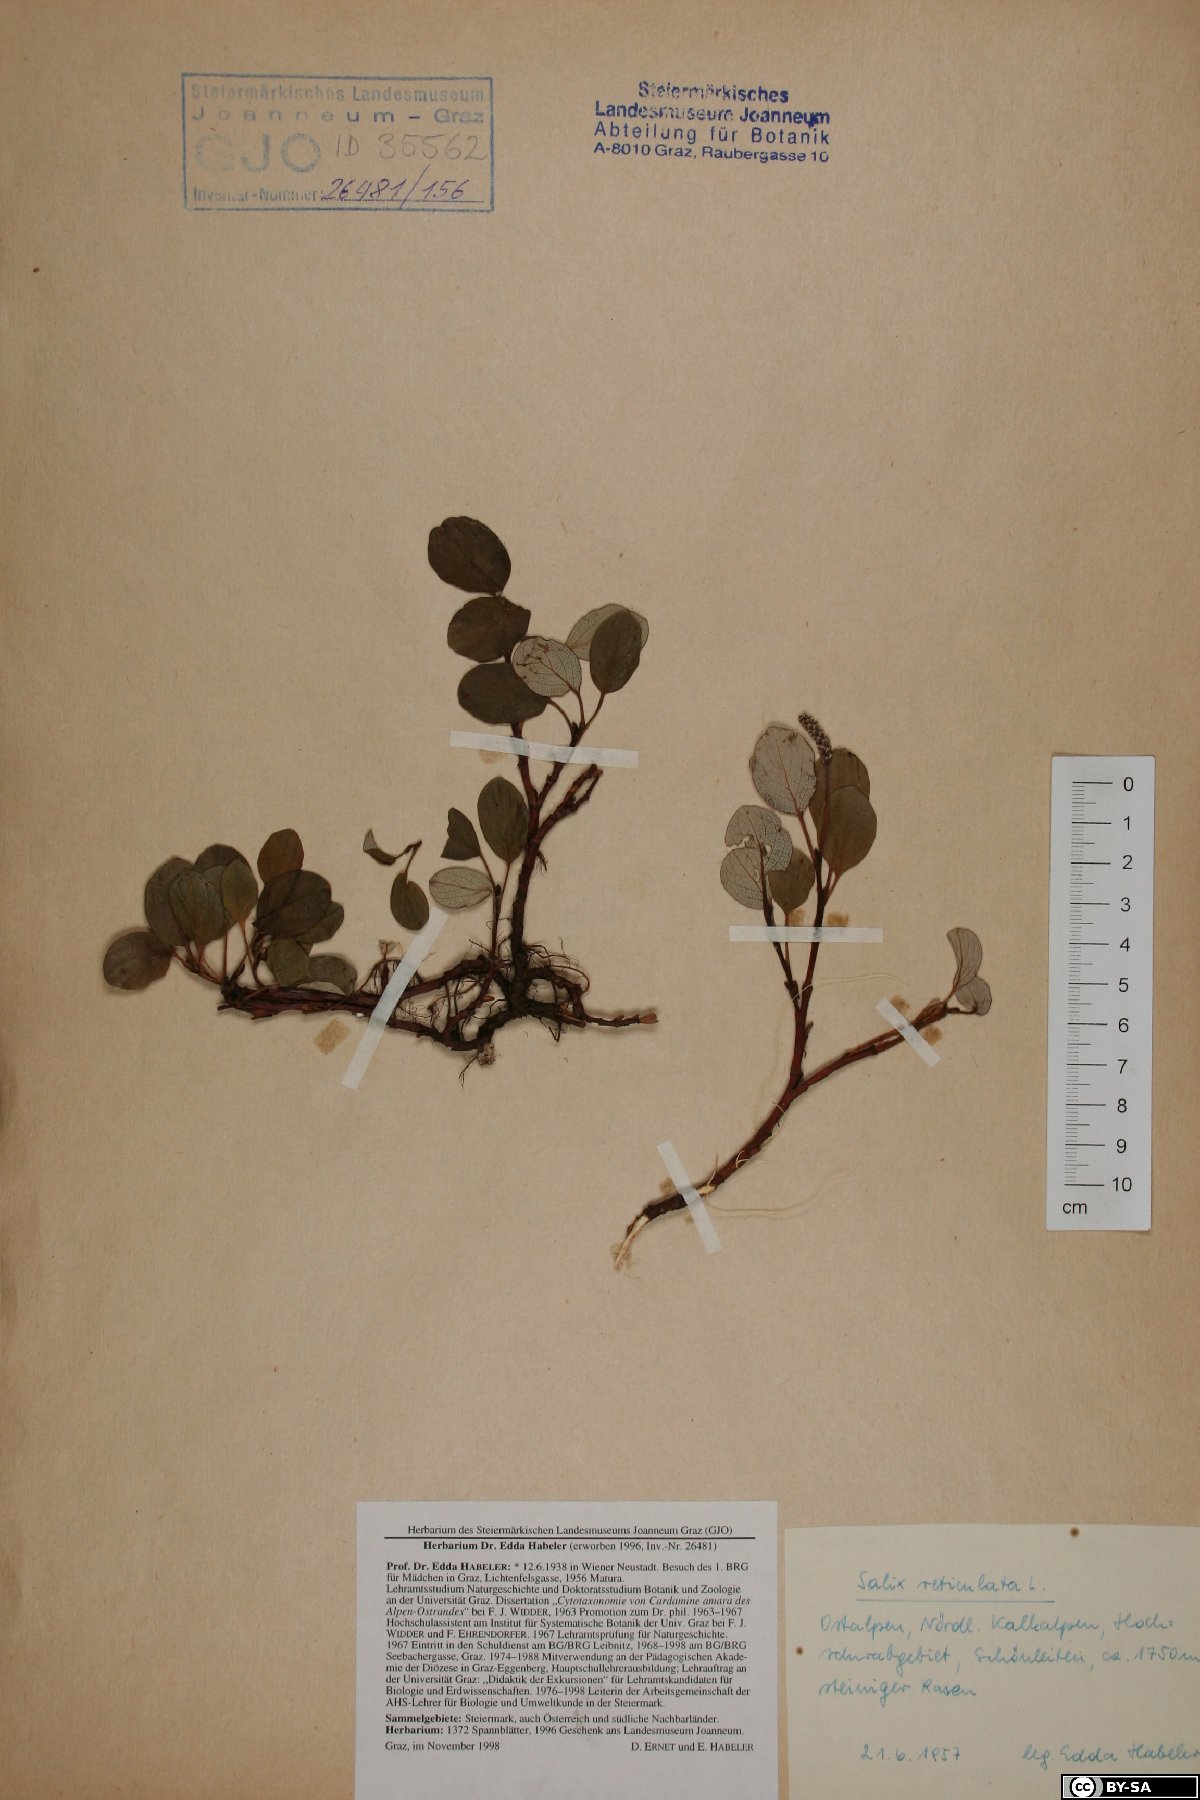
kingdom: Plantae
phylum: Tracheophyta
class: Magnoliopsida
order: Malpighiales
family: Salicaceae
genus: Salix
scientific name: Salix reticulata
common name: Net-leaved willow
